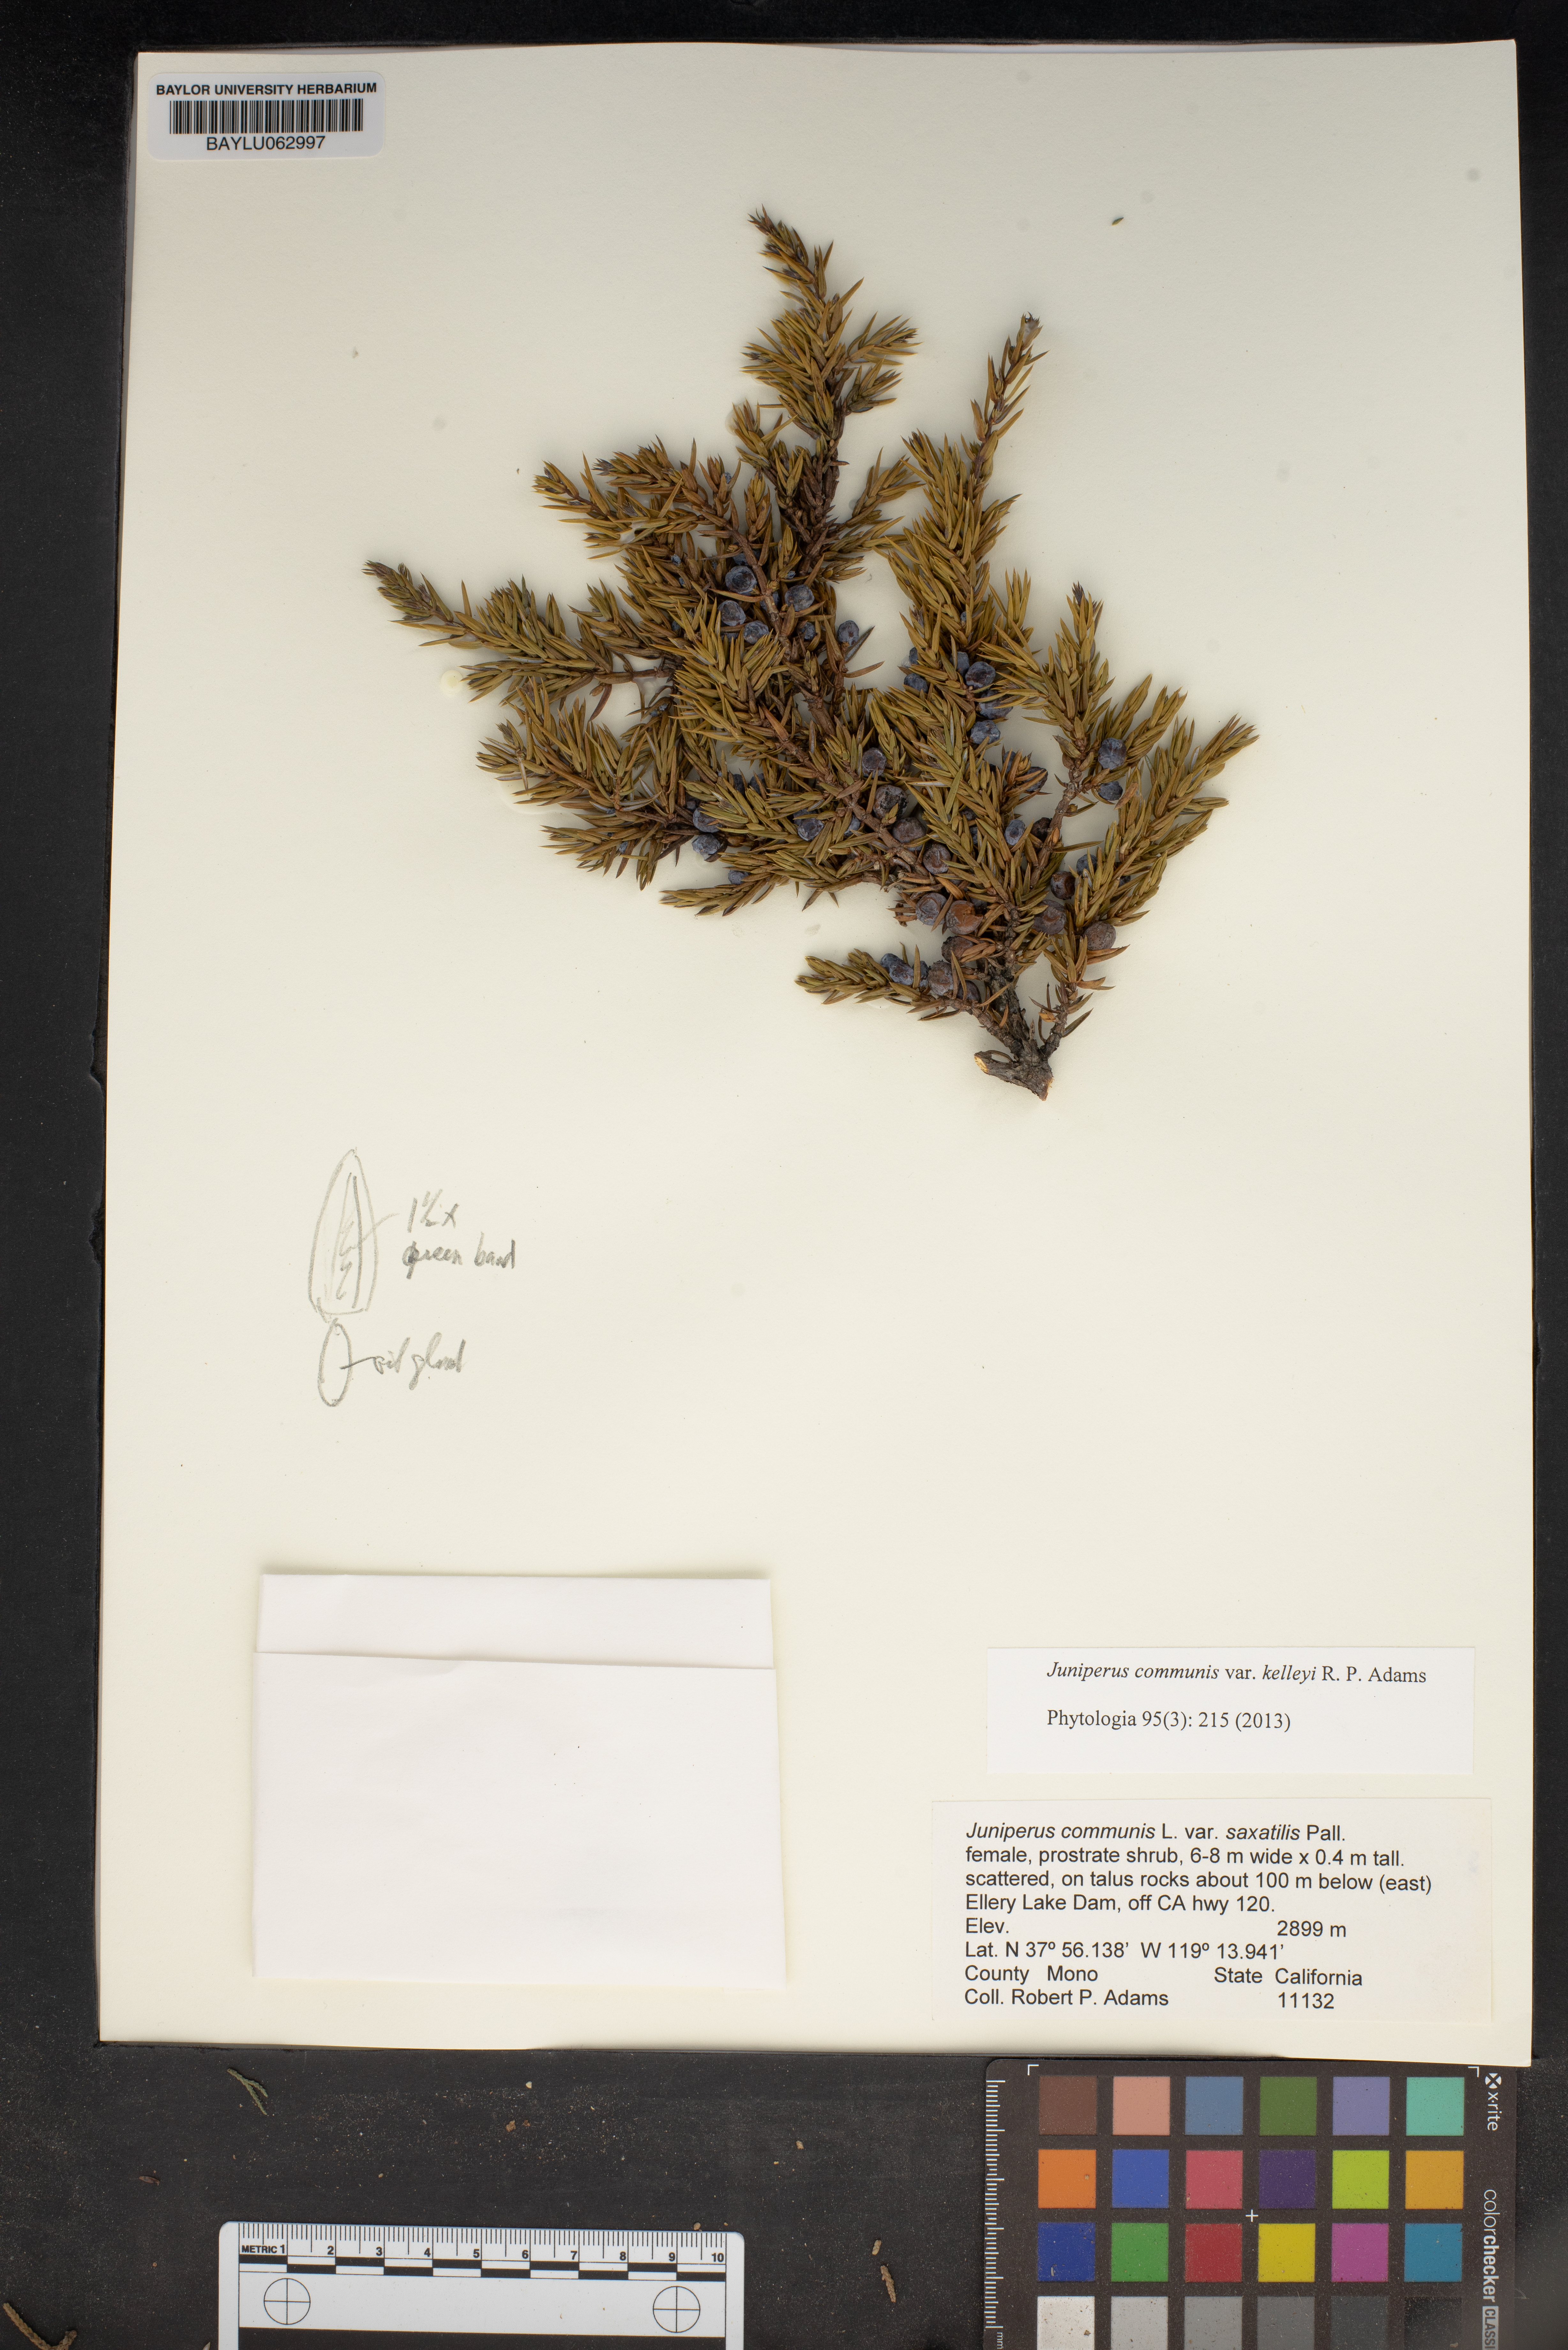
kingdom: Plantae
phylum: Tracheophyta
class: Pinopsida
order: Pinales
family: Cupressaceae
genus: Juniperus
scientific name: Juniperus communis
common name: Common juniper
